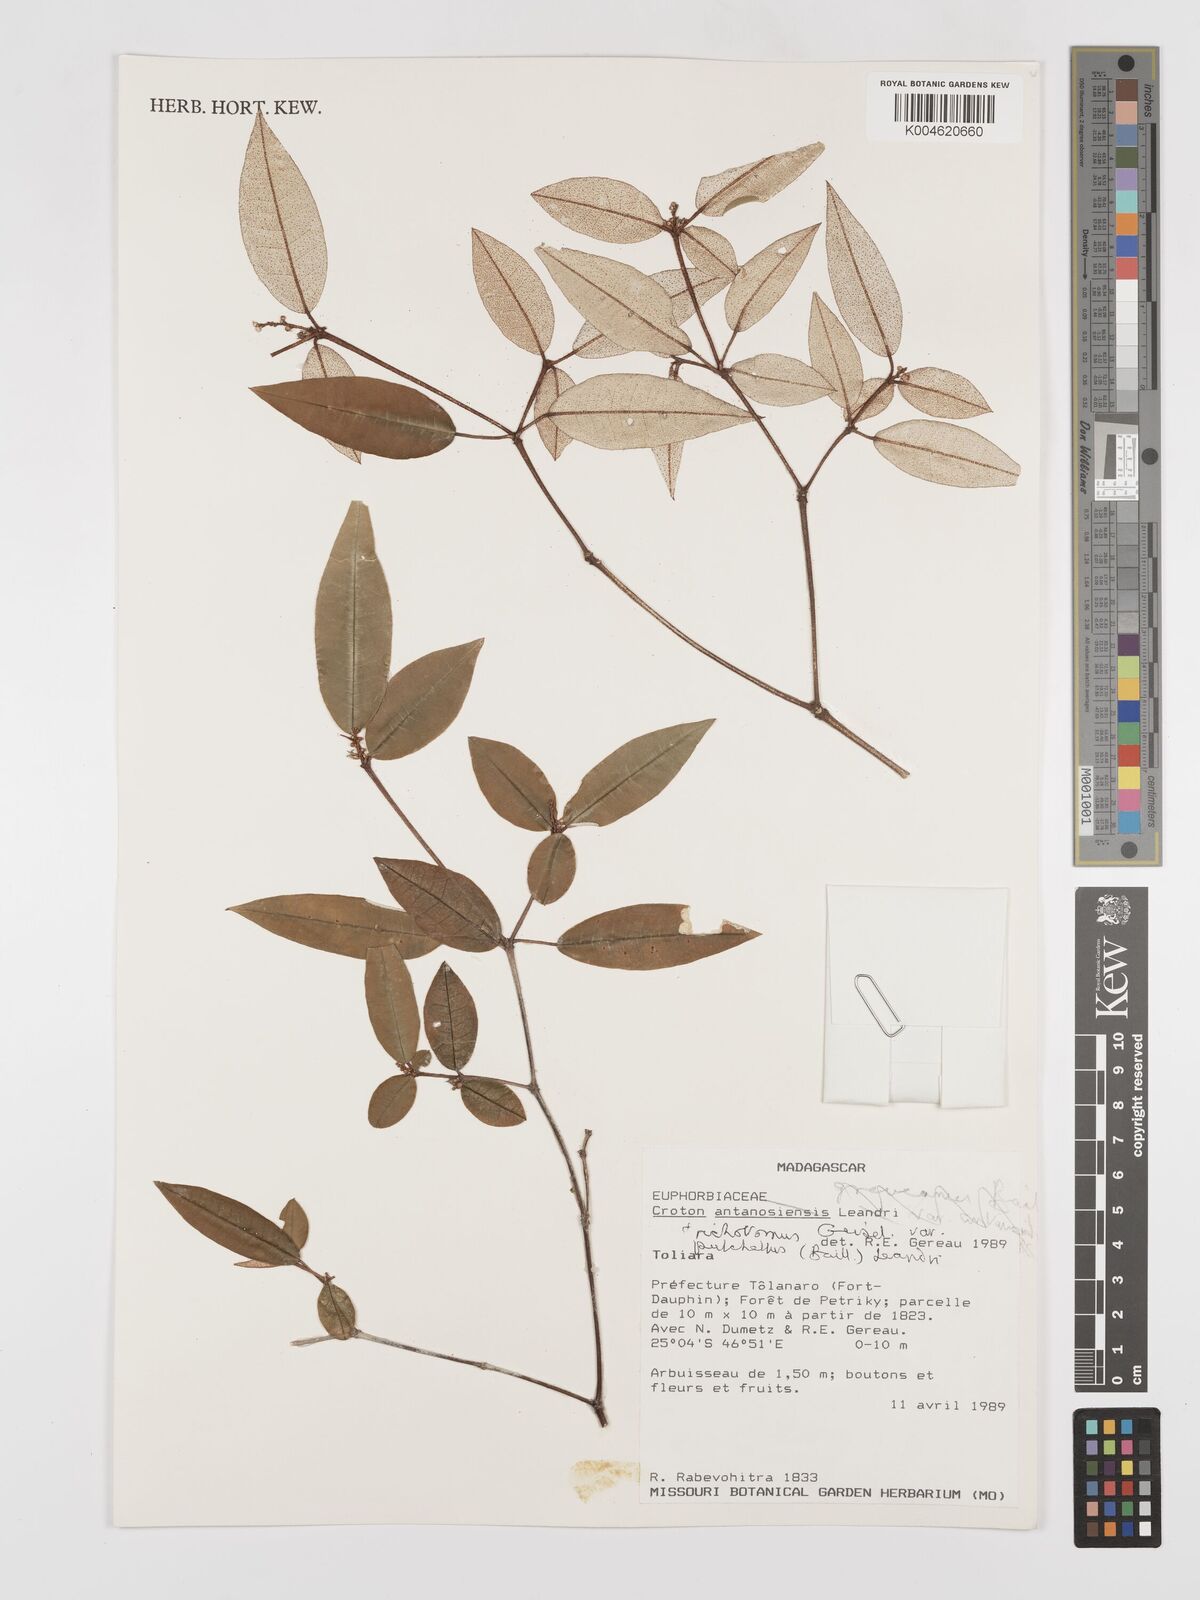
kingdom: Plantae
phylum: Tracheophyta
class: Magnoliopsida
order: Malpighiales
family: Euphorbiaceae
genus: Croton
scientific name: Croton trichotomus
